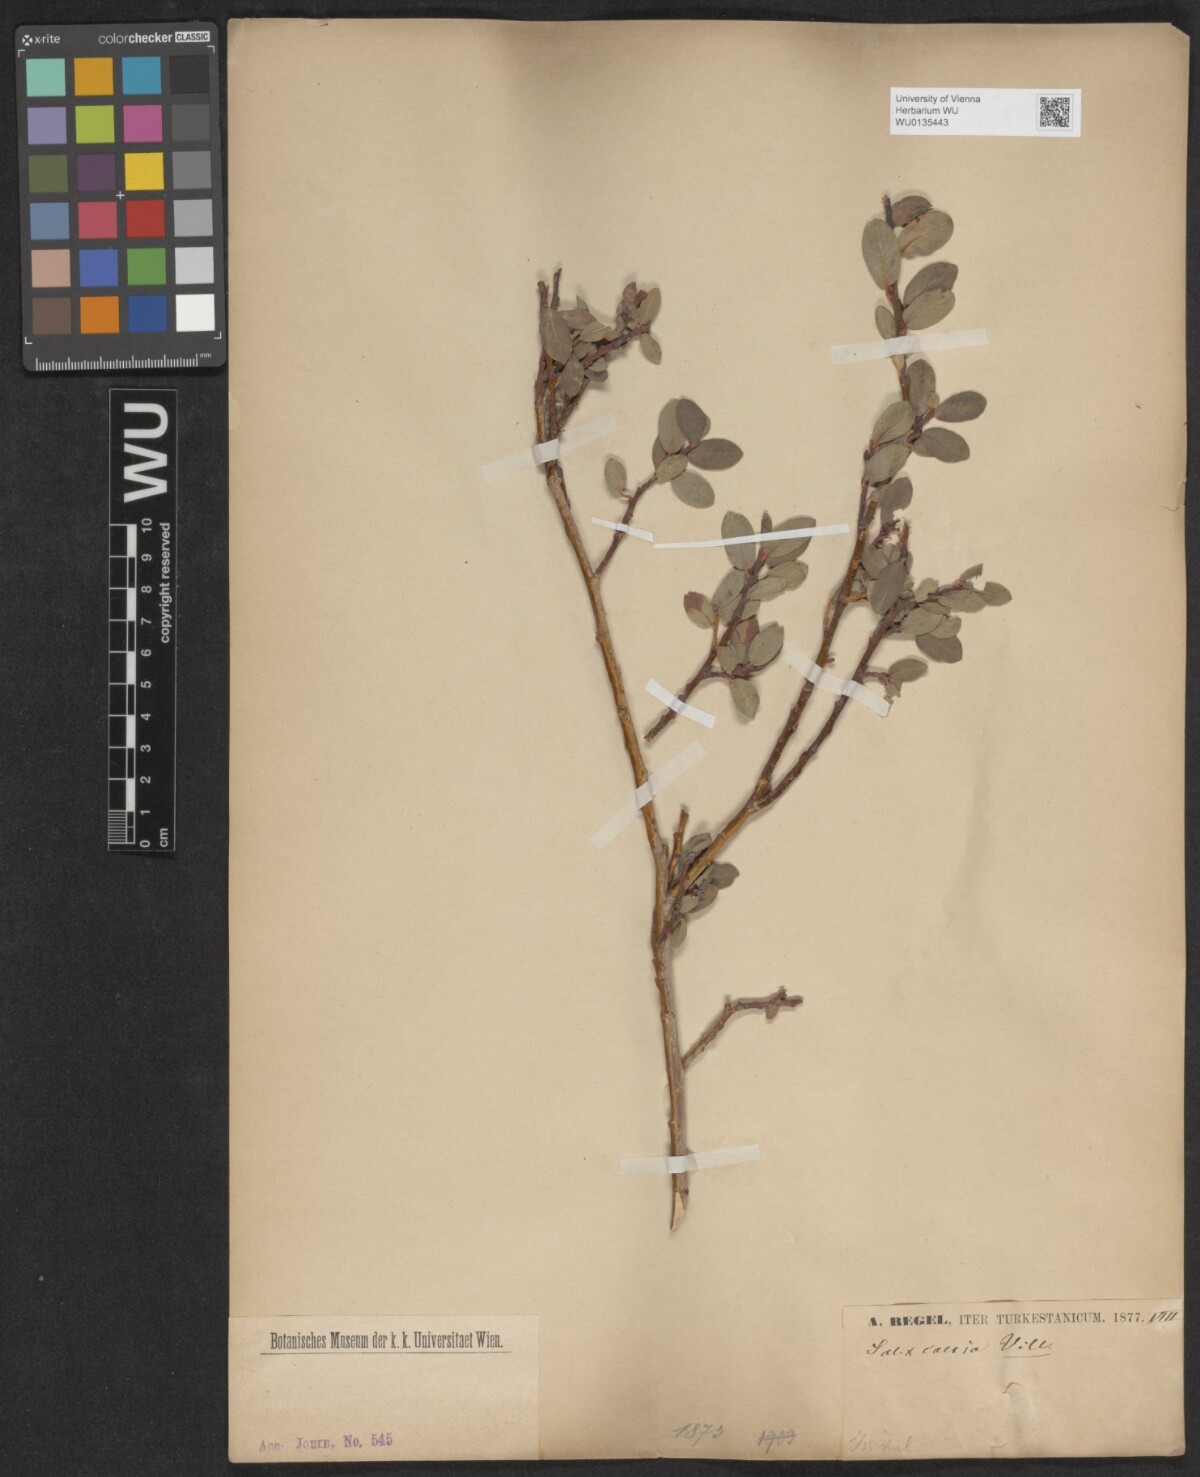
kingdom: Plantae
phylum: Tracheophyta
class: Magnoliopsida
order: Malpighiales
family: Salicaceae
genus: Salix
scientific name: Salix caesia
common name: Blue willow
